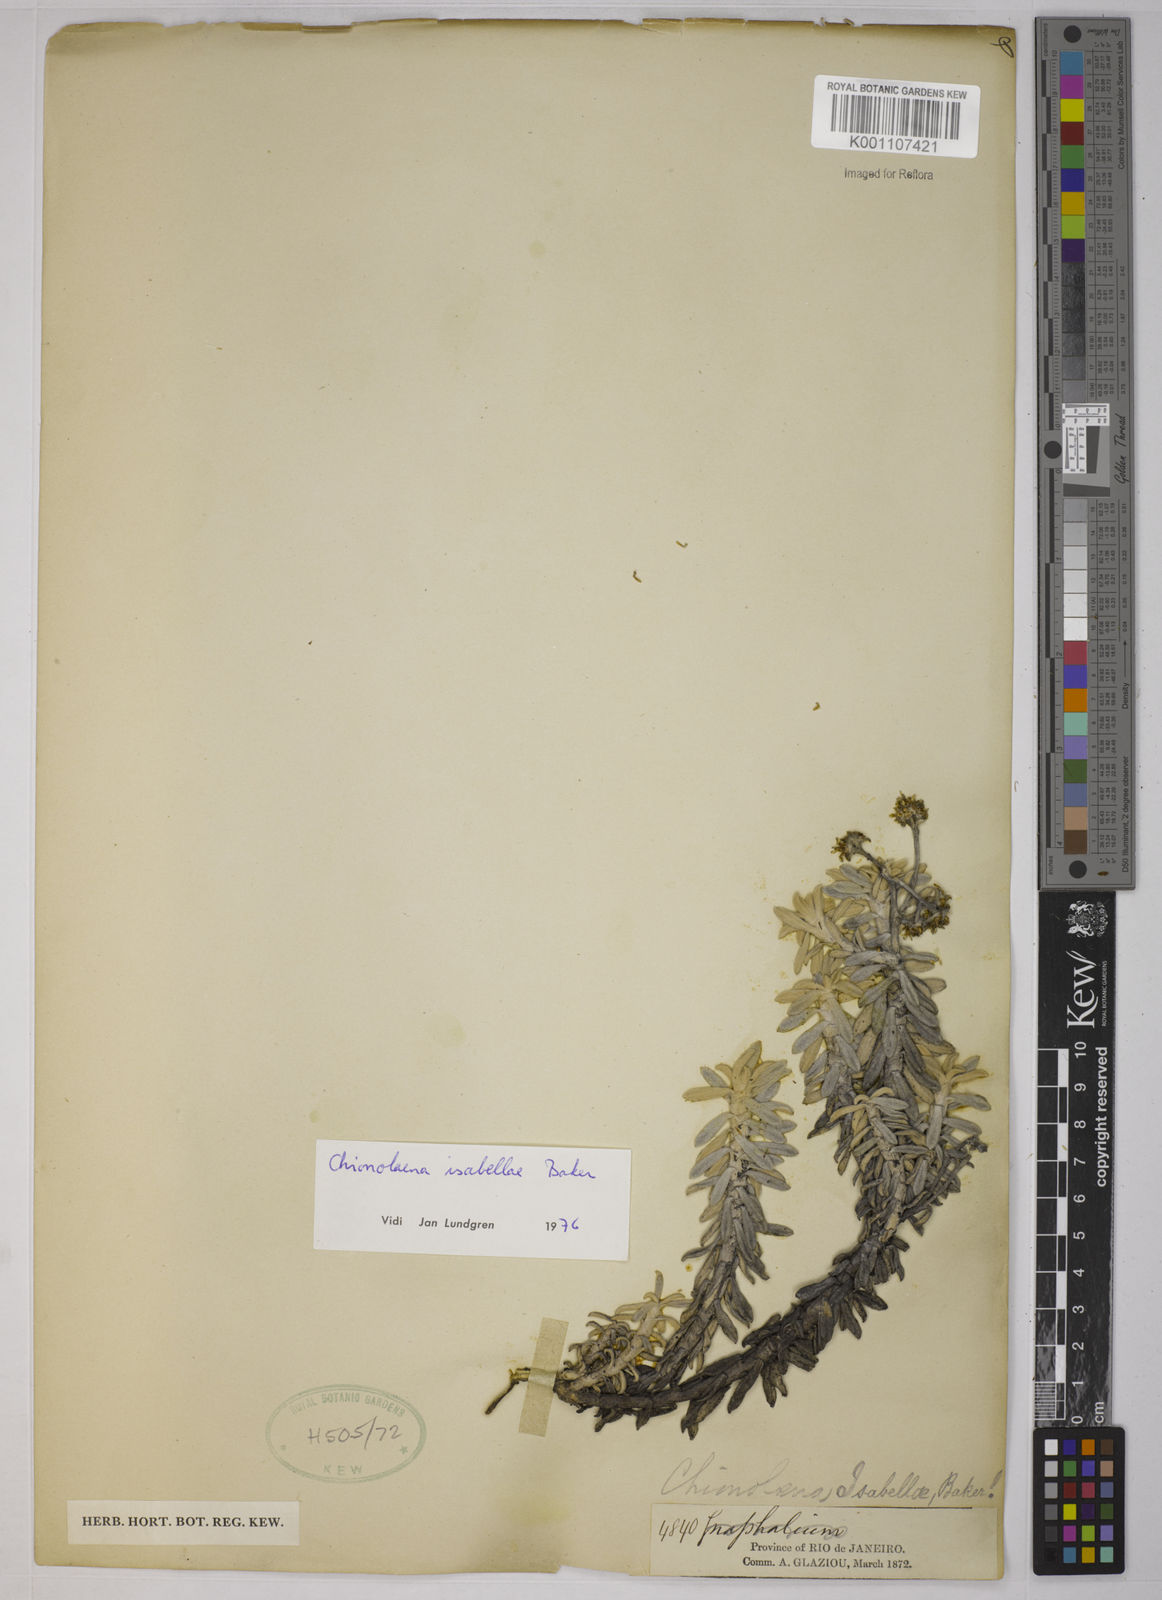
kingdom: Plantae
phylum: Tracheophyta
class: Magnoliopsida
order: Asterales
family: Asteraceae
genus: Chionolaena
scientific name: Chionolaena isabellae
